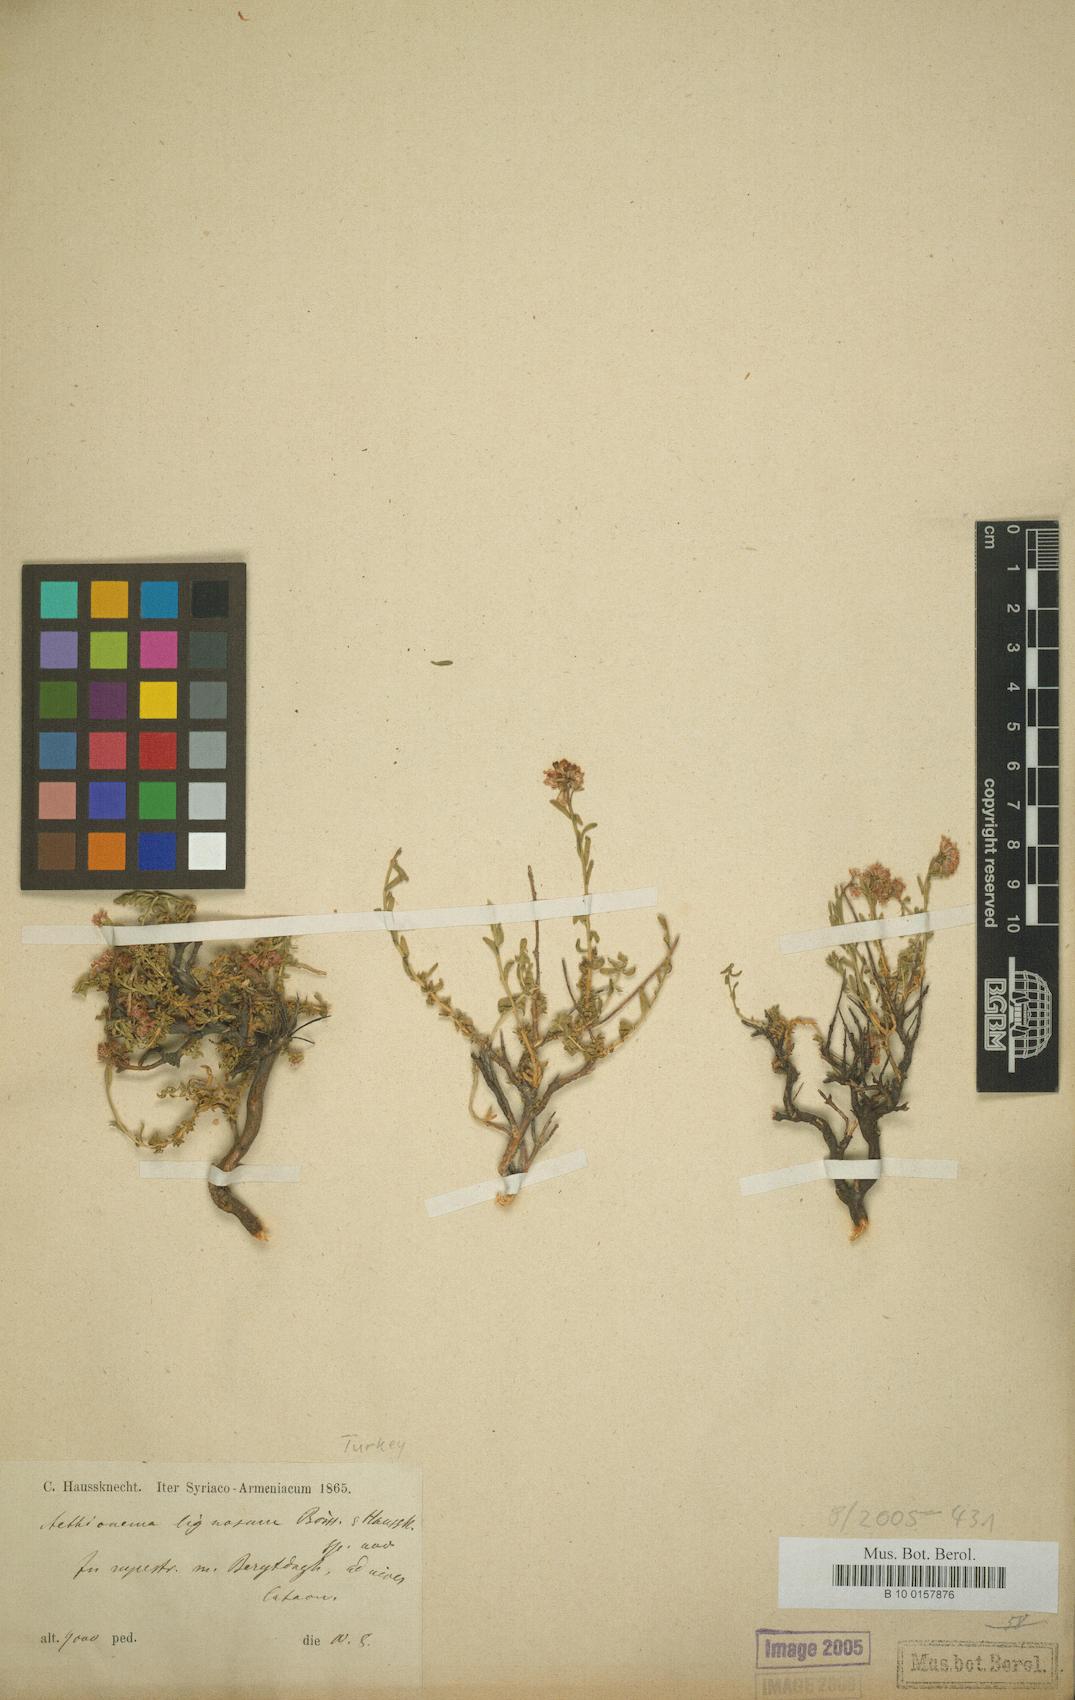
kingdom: Plantae
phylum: Tracheophyta
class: Magnoliopsida
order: Brassicales
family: Brassicaceae
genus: Aethionema
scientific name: Aethionema capitatum
